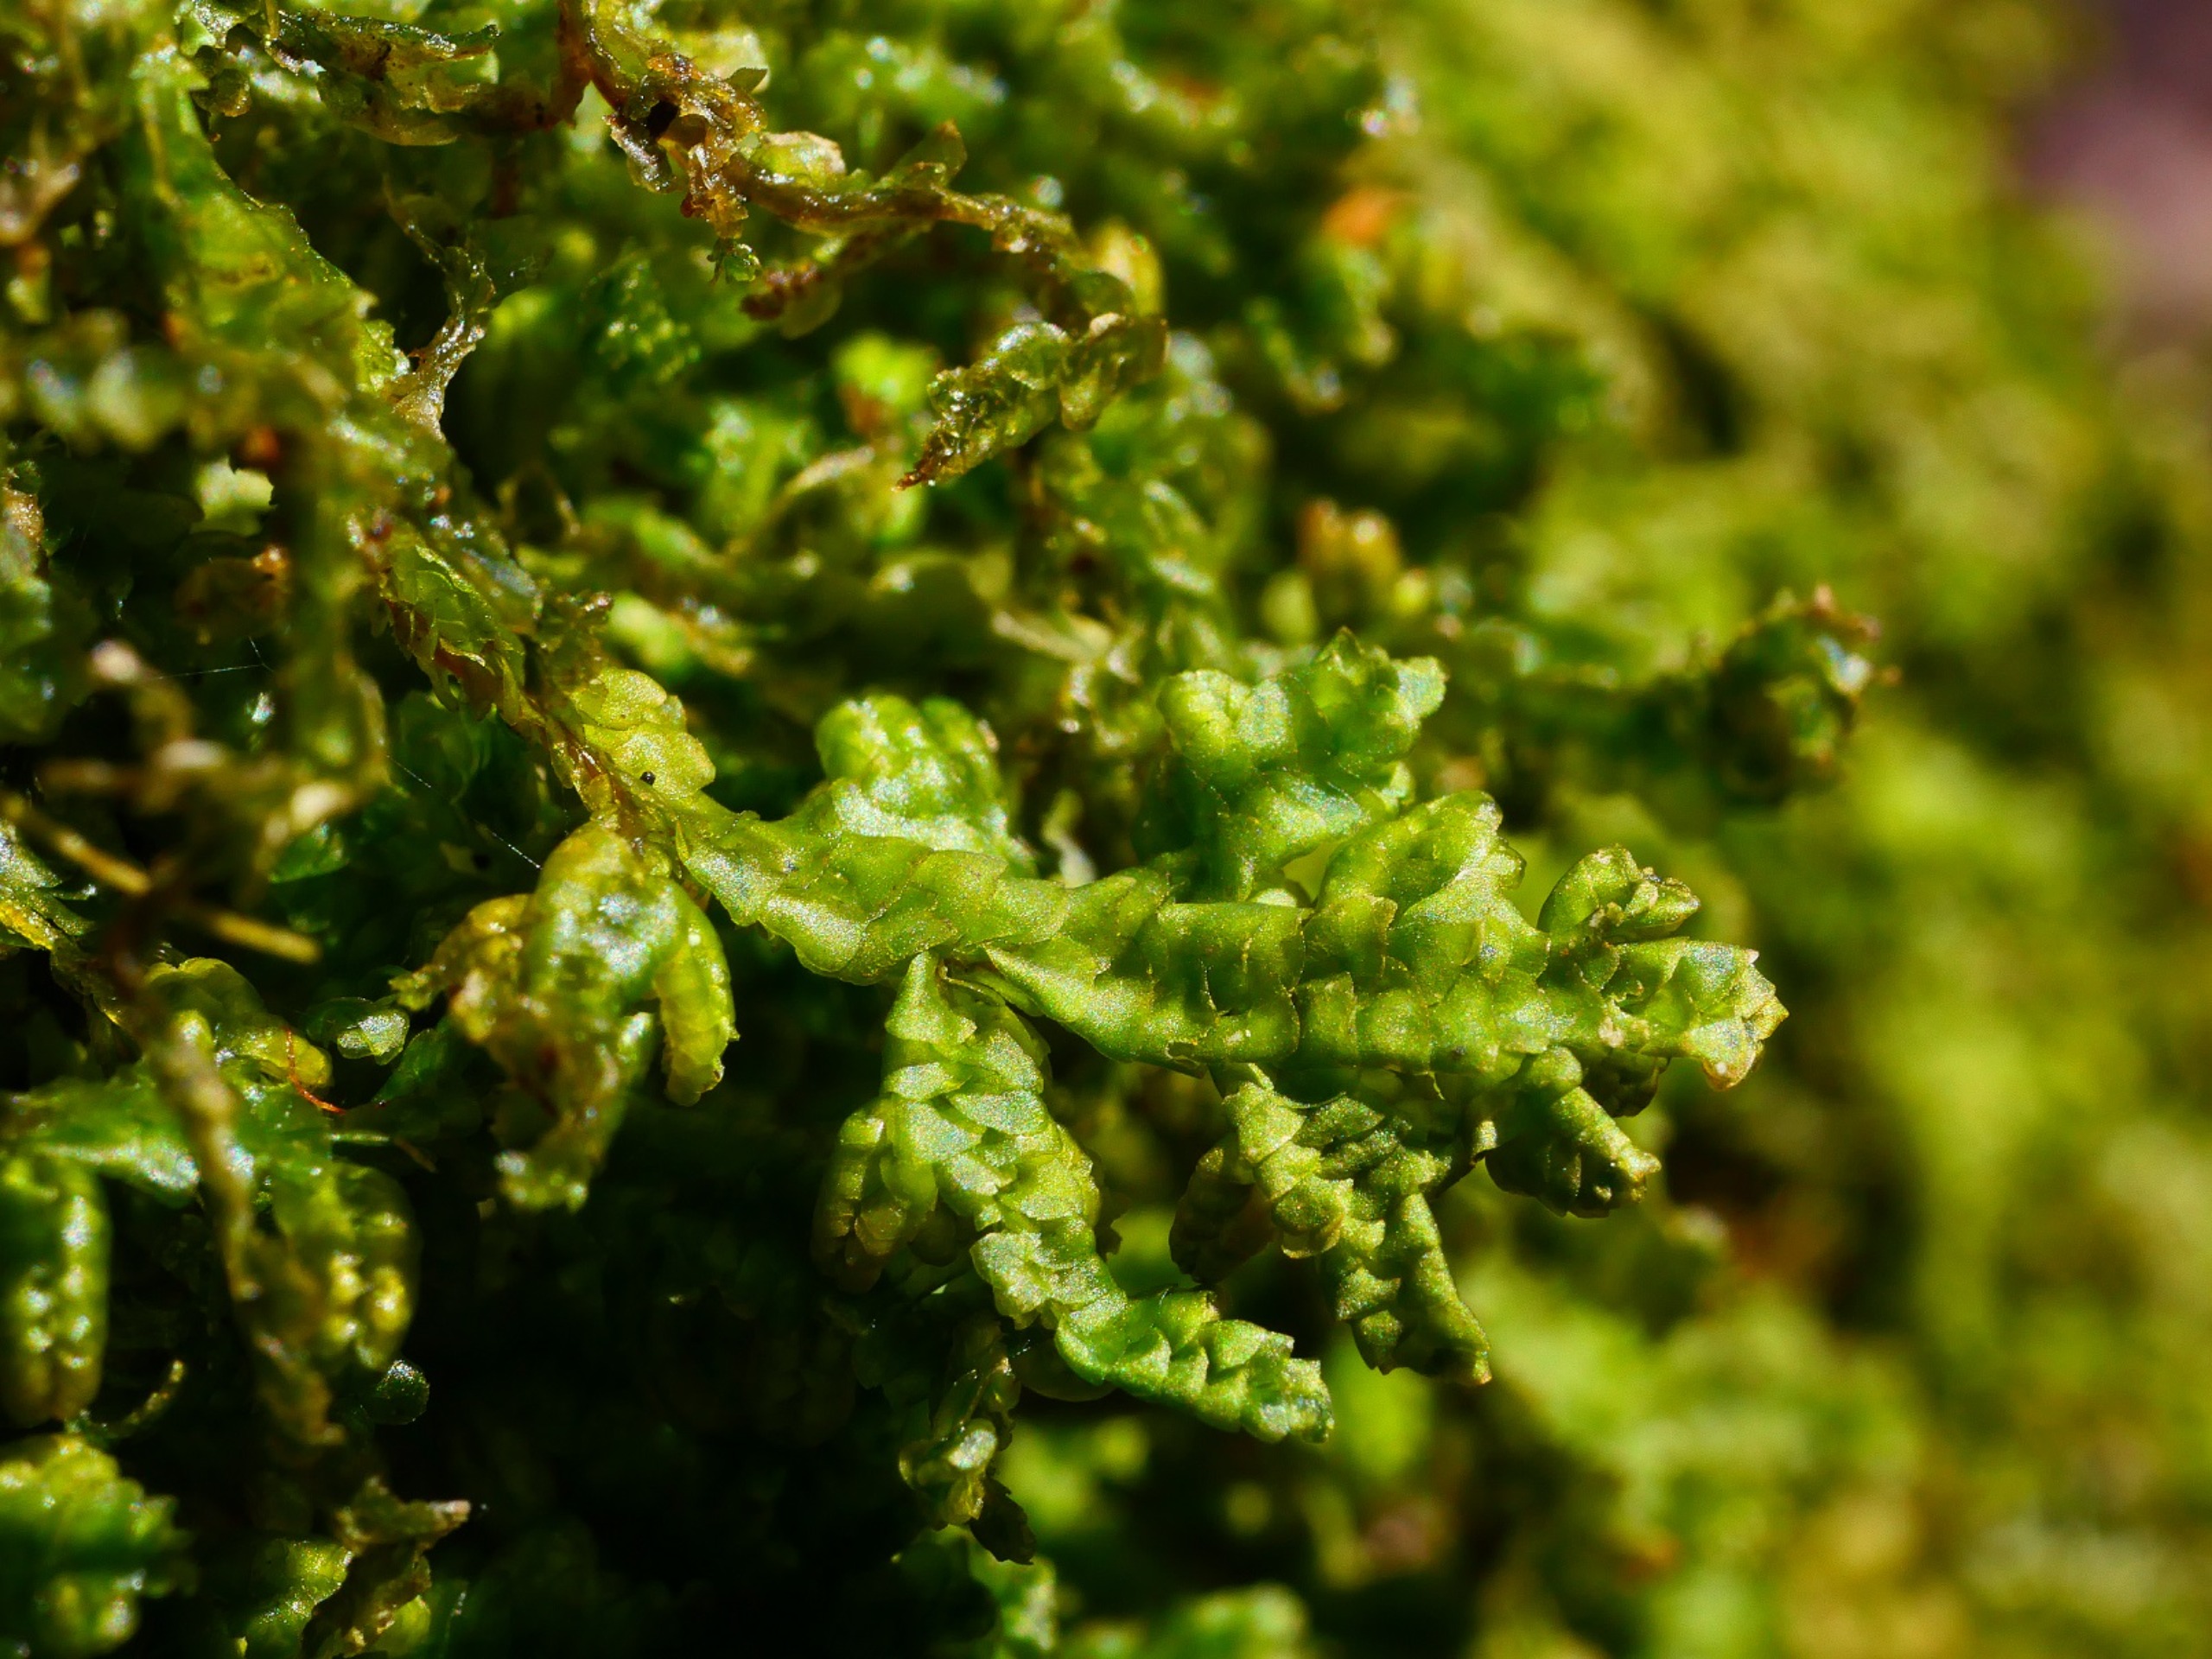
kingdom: Plantae
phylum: Marchantiophyta
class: Jungermanniopsida
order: Porellales
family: Porellaceae
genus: Porella
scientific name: Porella platyphylla
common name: Almindelig skælryg
